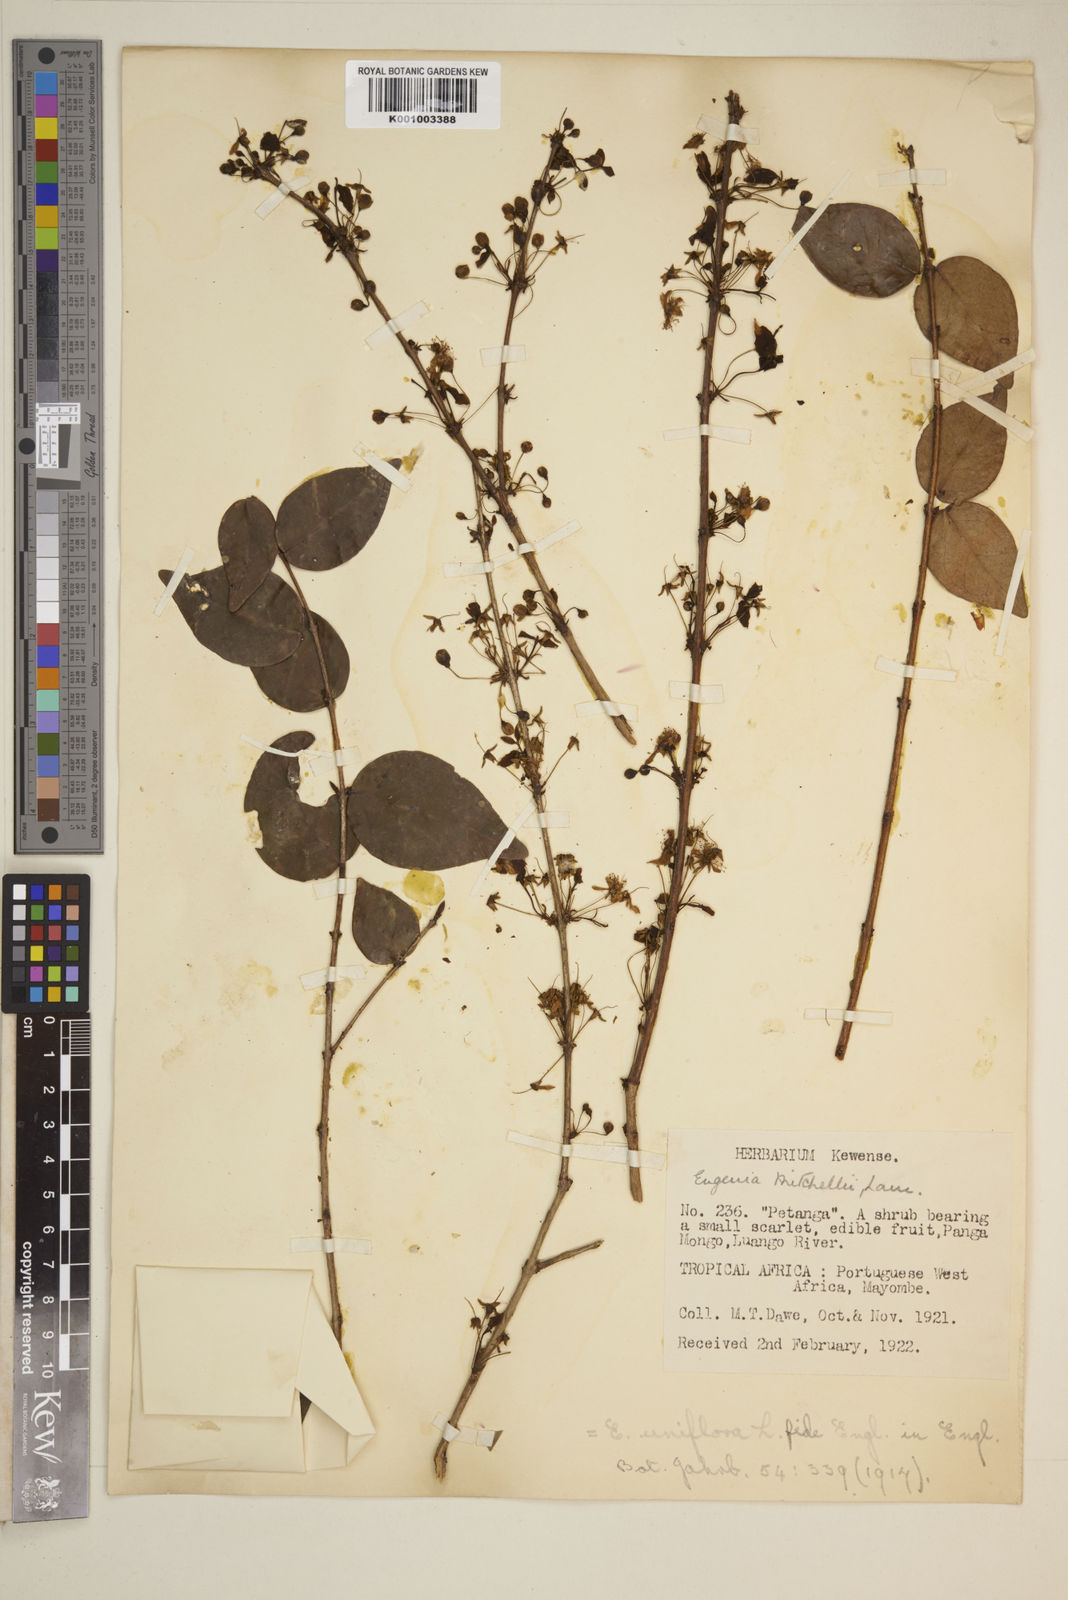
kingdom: Plantae
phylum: Tracheophyta
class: Magnoliopsida
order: Myrtales
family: Myrtaceae
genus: Eugenia
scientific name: Eugenia uniflora
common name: Surinam cherry
